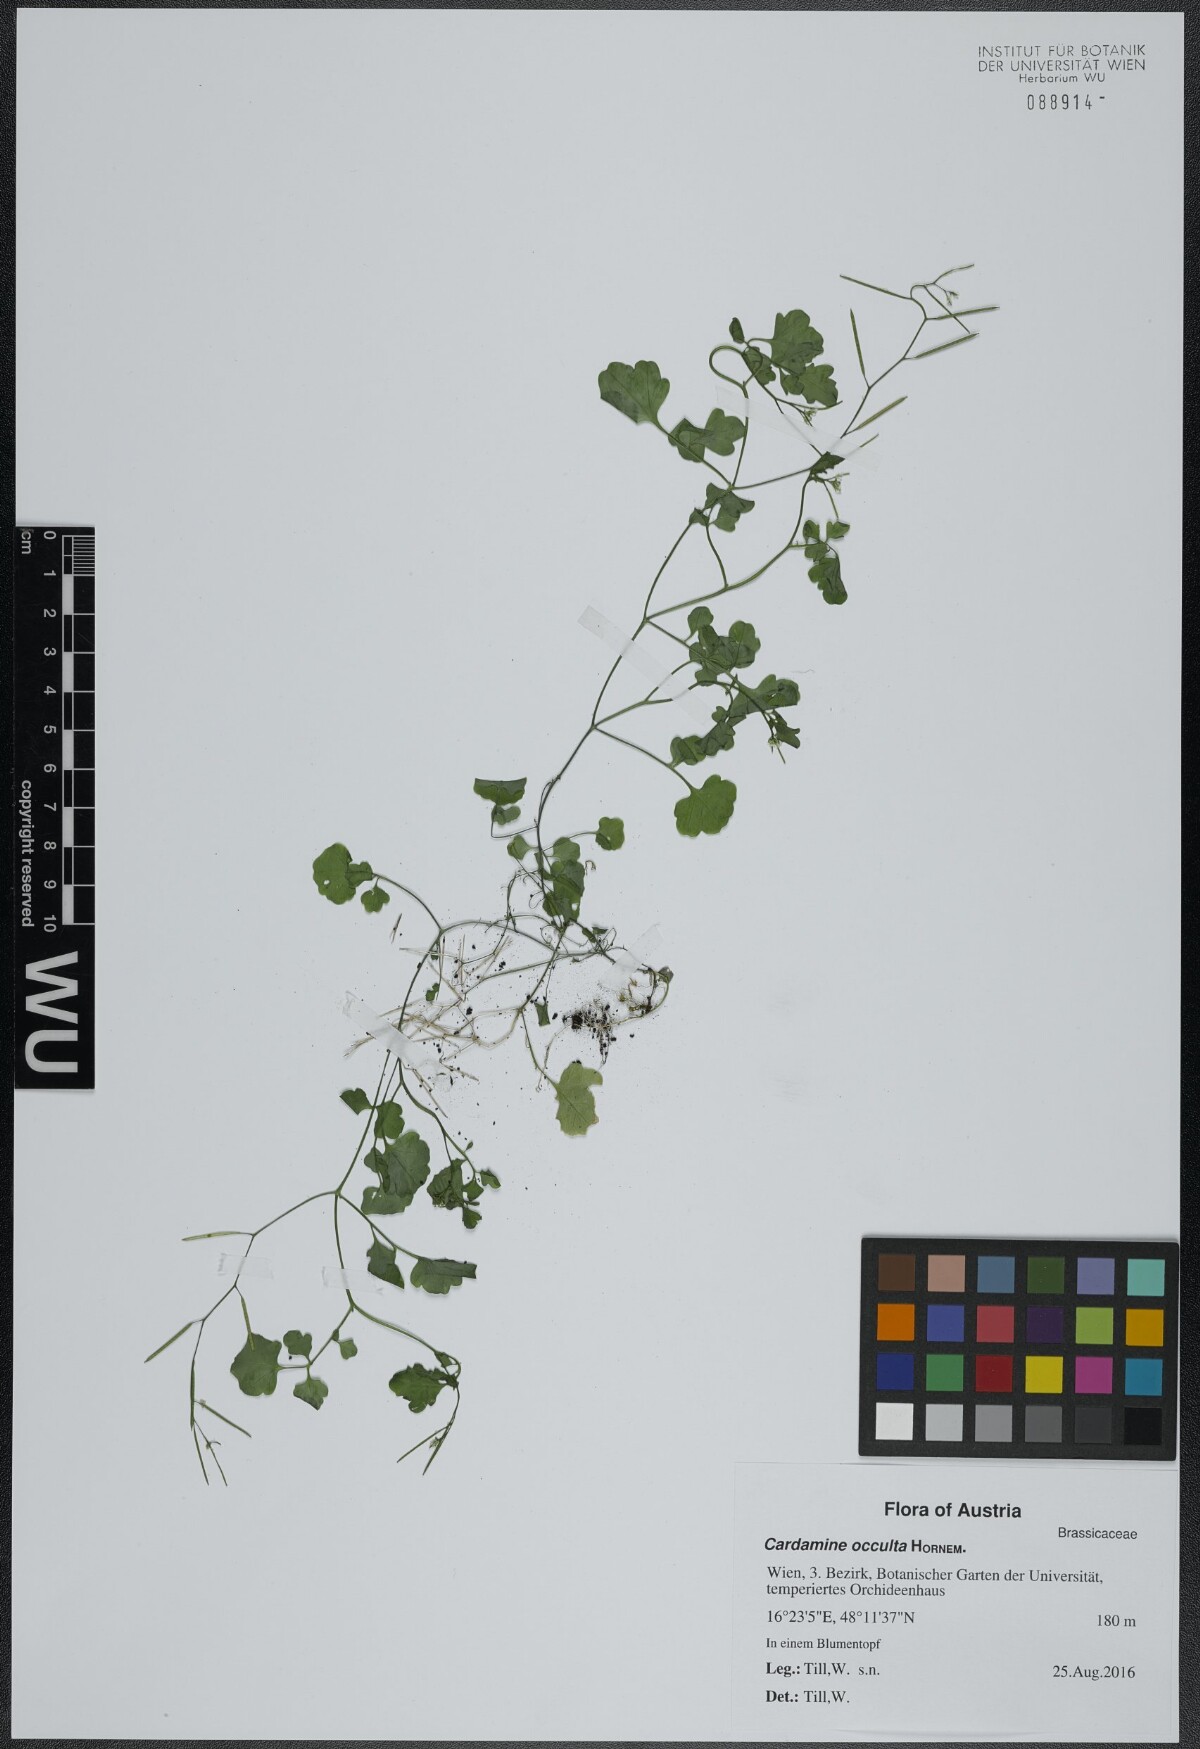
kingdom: Plantae
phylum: Tracheophyta
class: Magnoliopsida
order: Brassicales
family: Brassicaceae
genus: Cardamine
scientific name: Cardamine occulta
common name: Asian wavy bittercress
